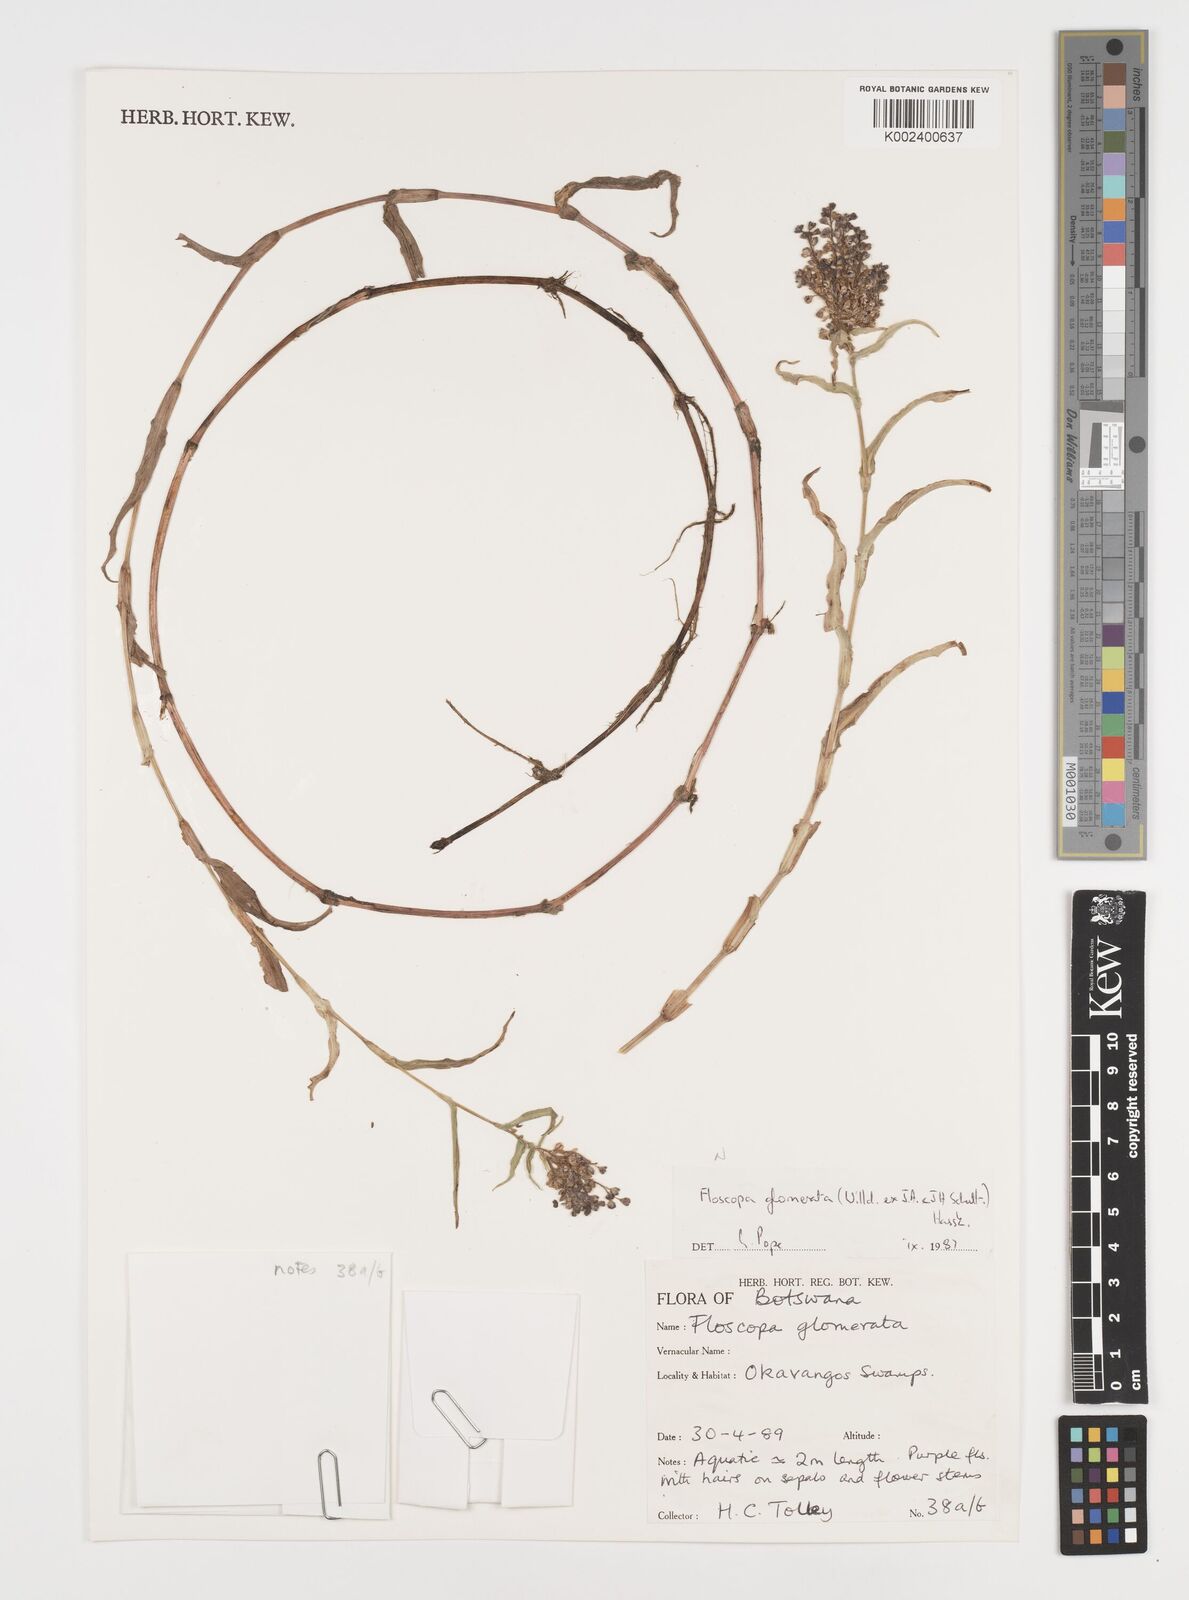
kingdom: Plantae
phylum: Tracheophyta
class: Liliopsida
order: Commelinales
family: Commelinaceae
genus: Floscopa
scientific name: Floscopa glomerata
